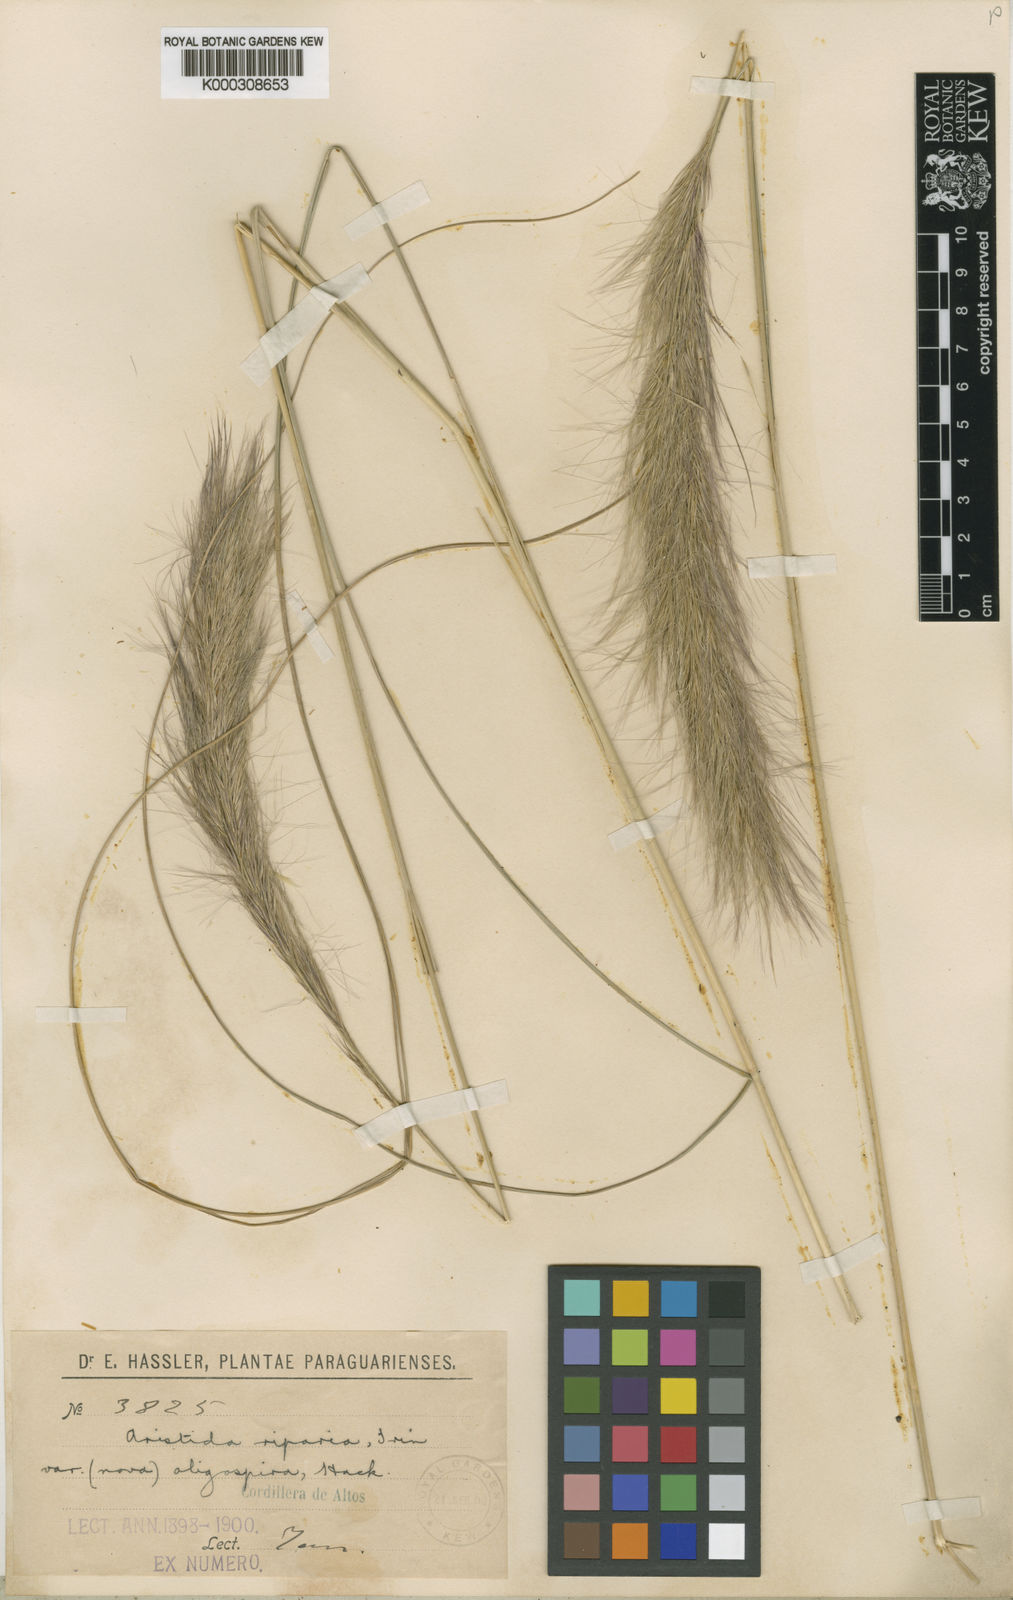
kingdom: Plantae
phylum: Tracheophyta
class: Liliopsida
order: Poales
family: Poaceae
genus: Aristida
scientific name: Aristida oligospira
